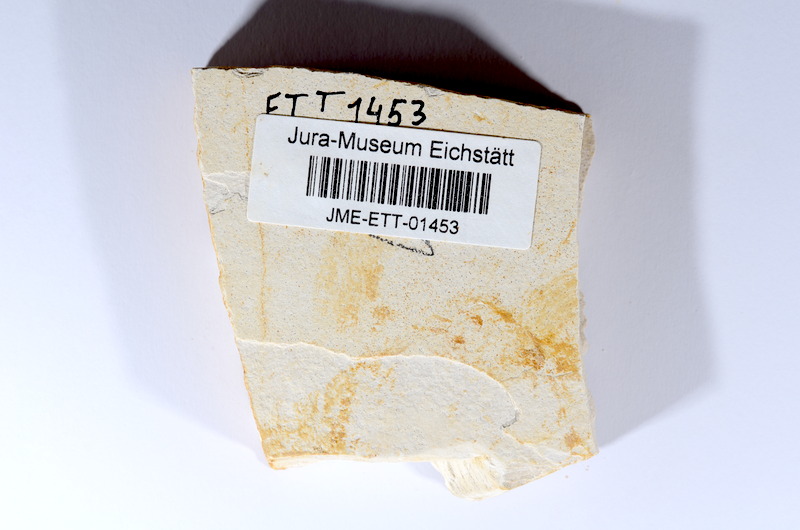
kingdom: Animalia
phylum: Chordata
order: Salmoniformes
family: Orthogonikleithridae
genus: Orthogonikleithrus
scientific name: Orthogonikleithrus hoelli
